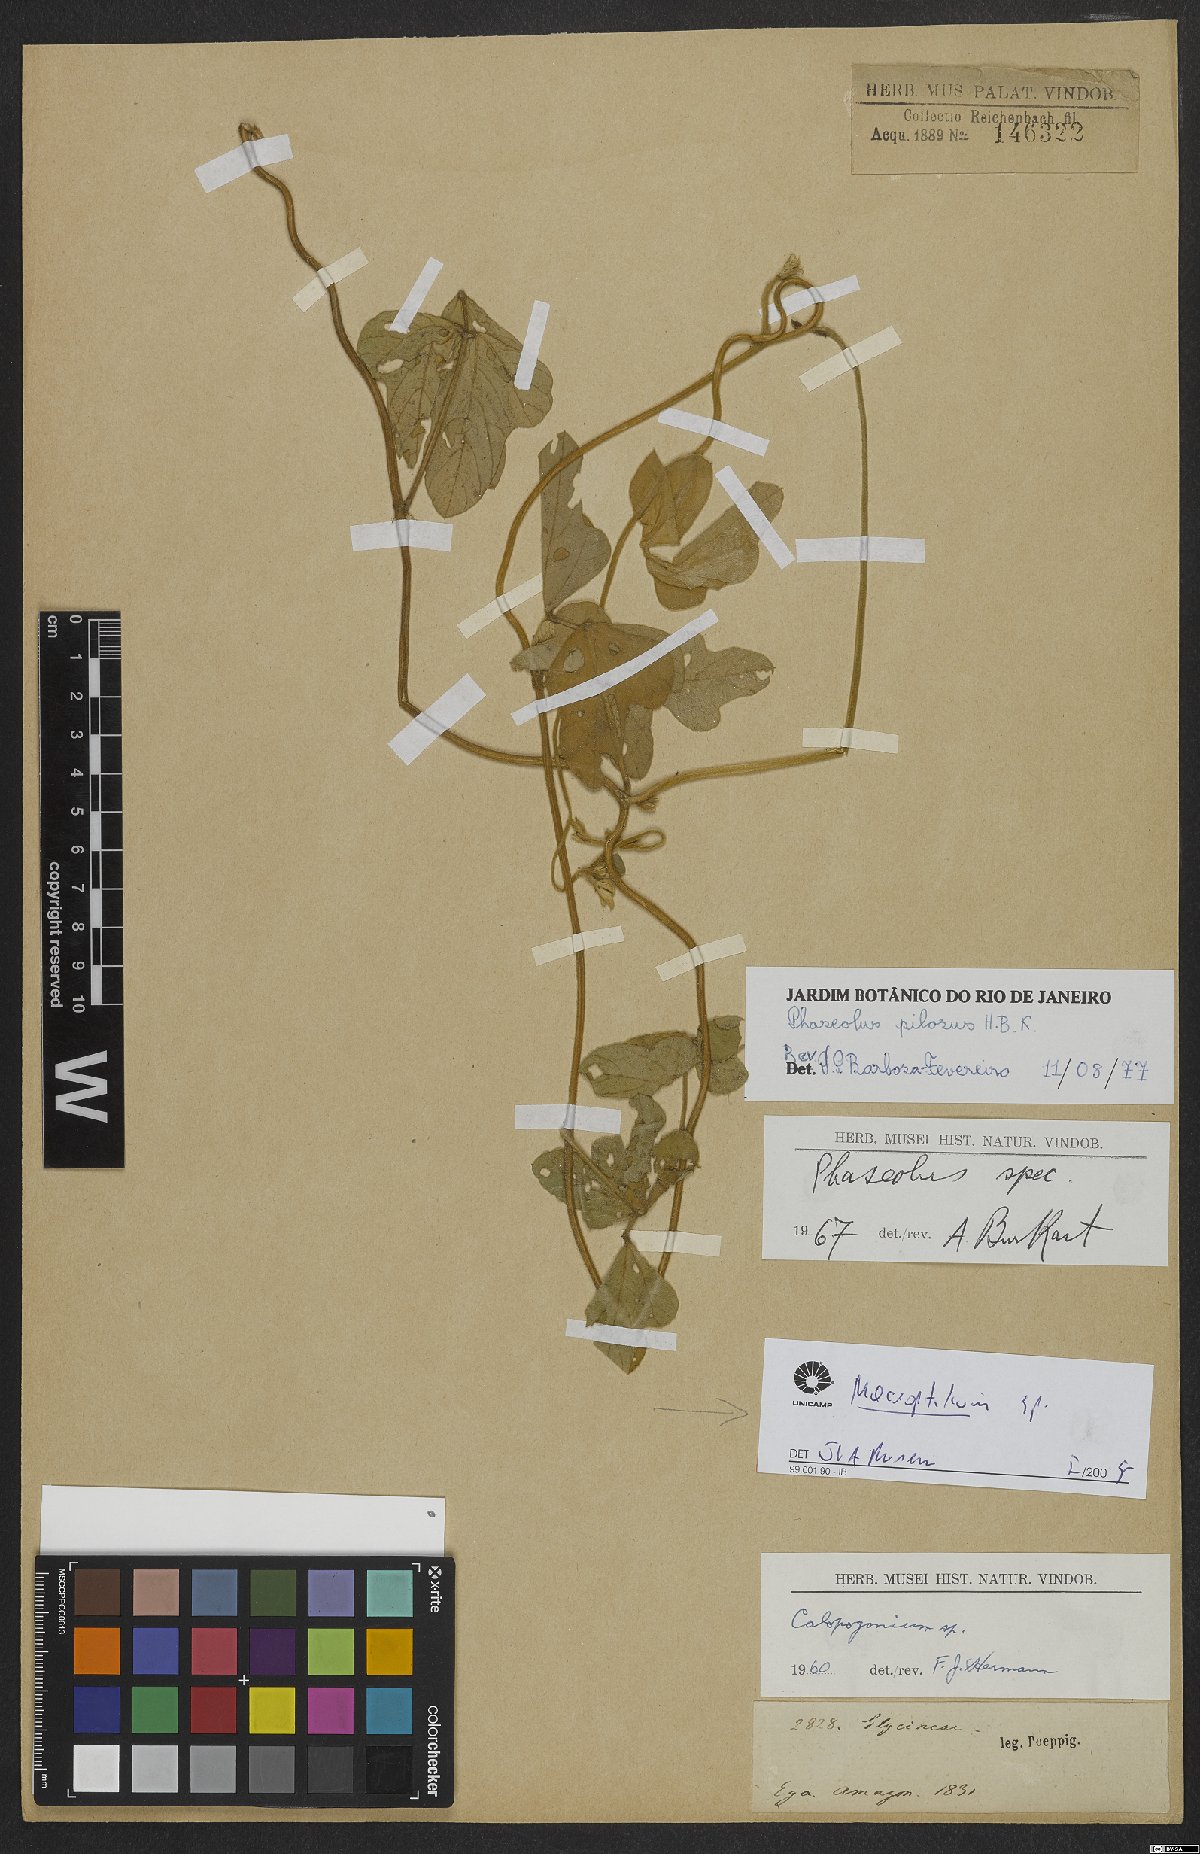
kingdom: Plantae
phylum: Tracheophyta
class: Magnoliopsida
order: Fabales
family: Fabaceae
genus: Macroptilium
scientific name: Macroptilium
